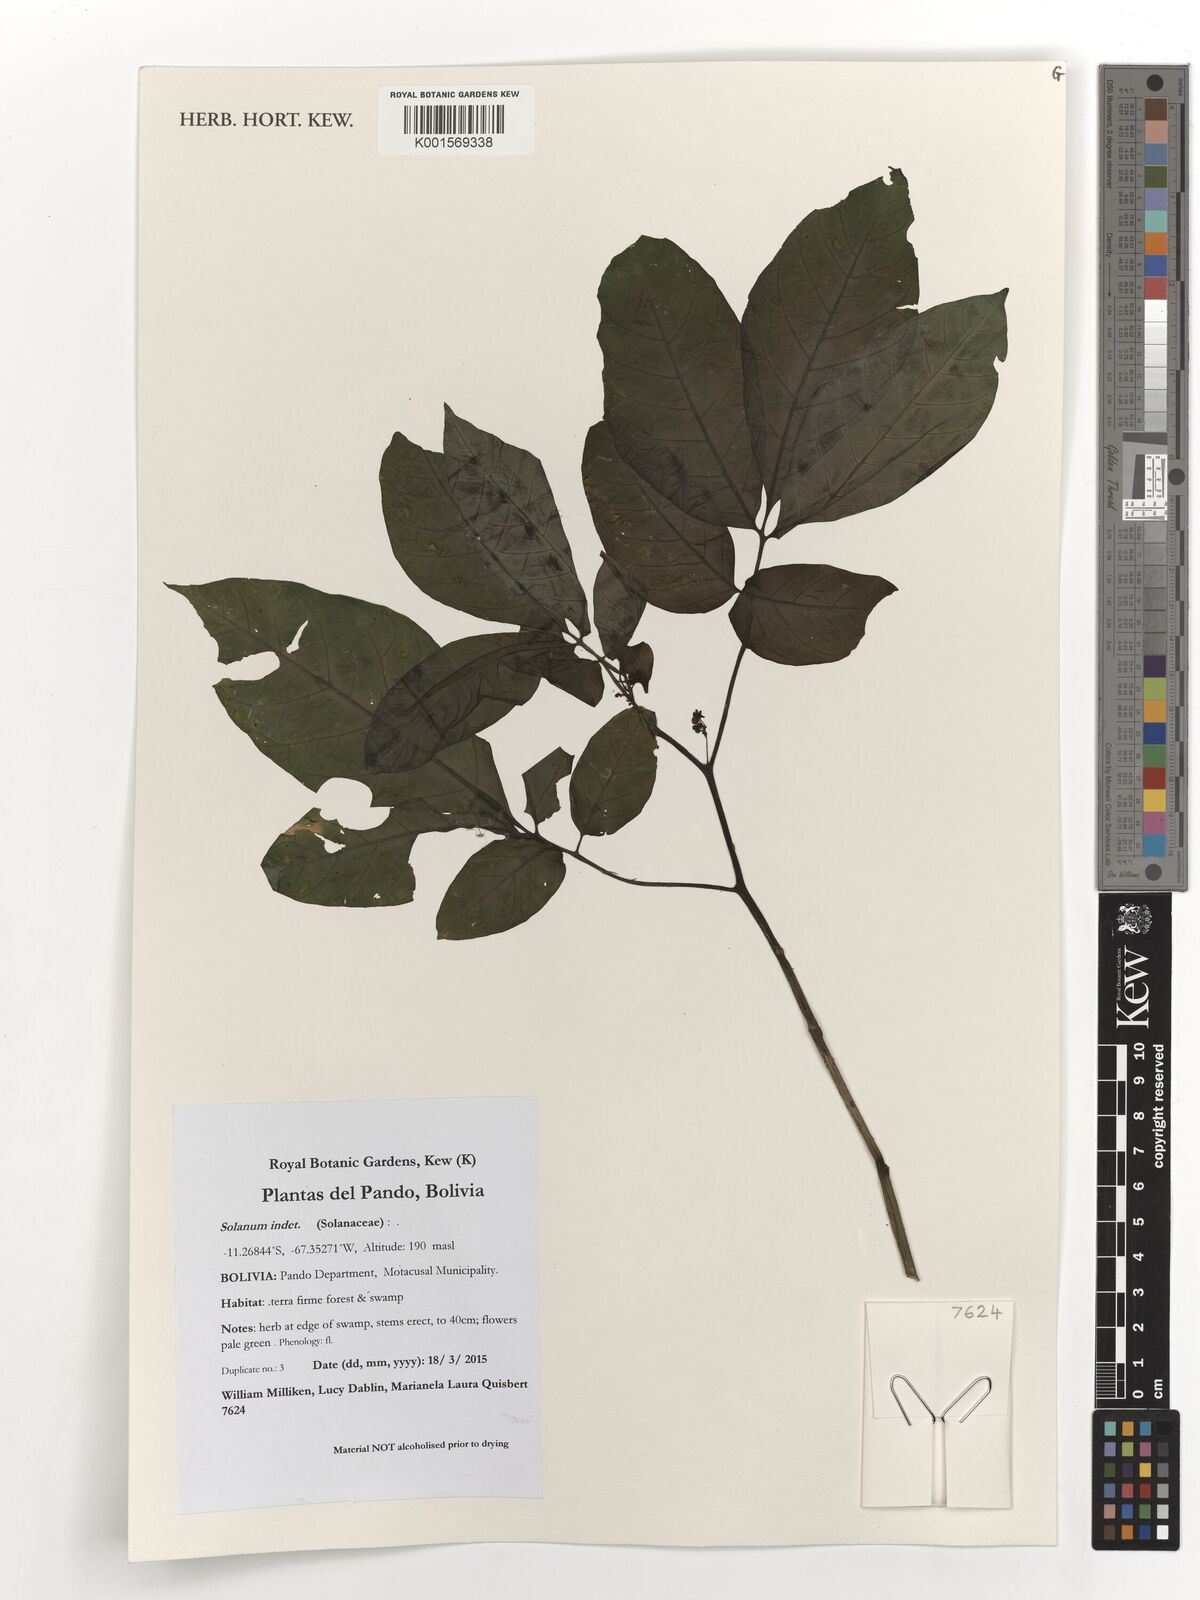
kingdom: Plantae
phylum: Tracheophyta
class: Magnoliopsida
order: Solanales
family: Solanaceae
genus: Solanum
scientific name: Solanum
